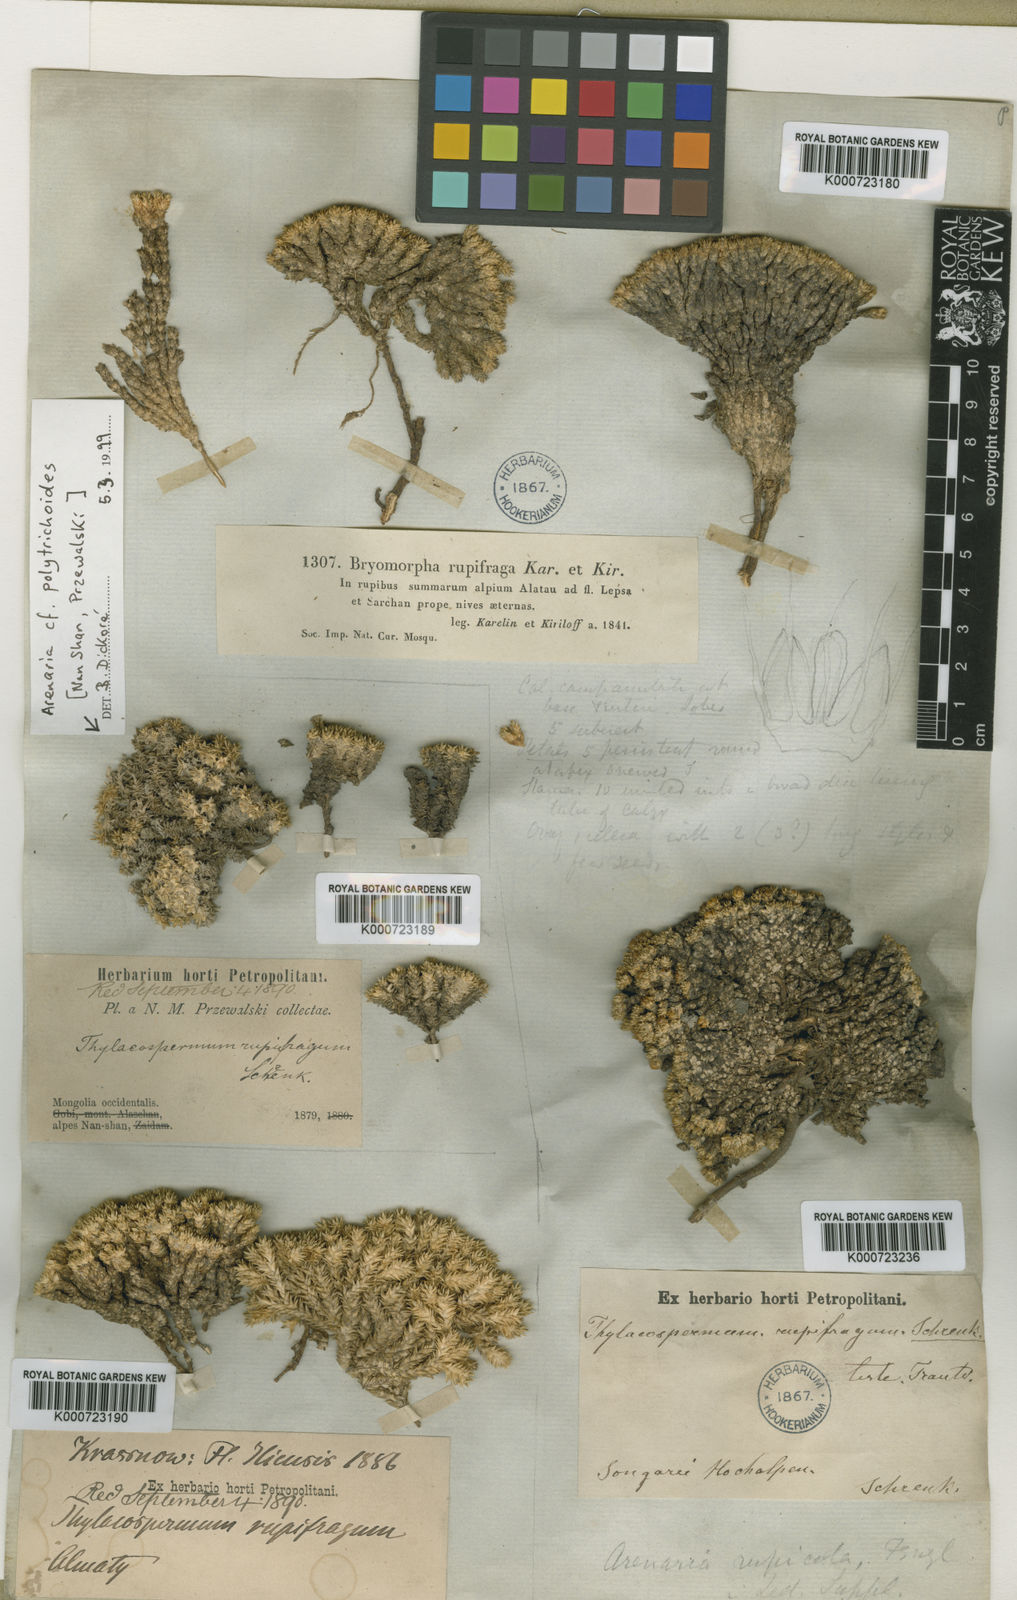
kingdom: Plantae
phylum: Tracheophyta
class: Magnoliopsida
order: Caryophyllales
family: Caryophyllaceae
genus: Thylacospermum
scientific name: Thylacospermum caespitosum
